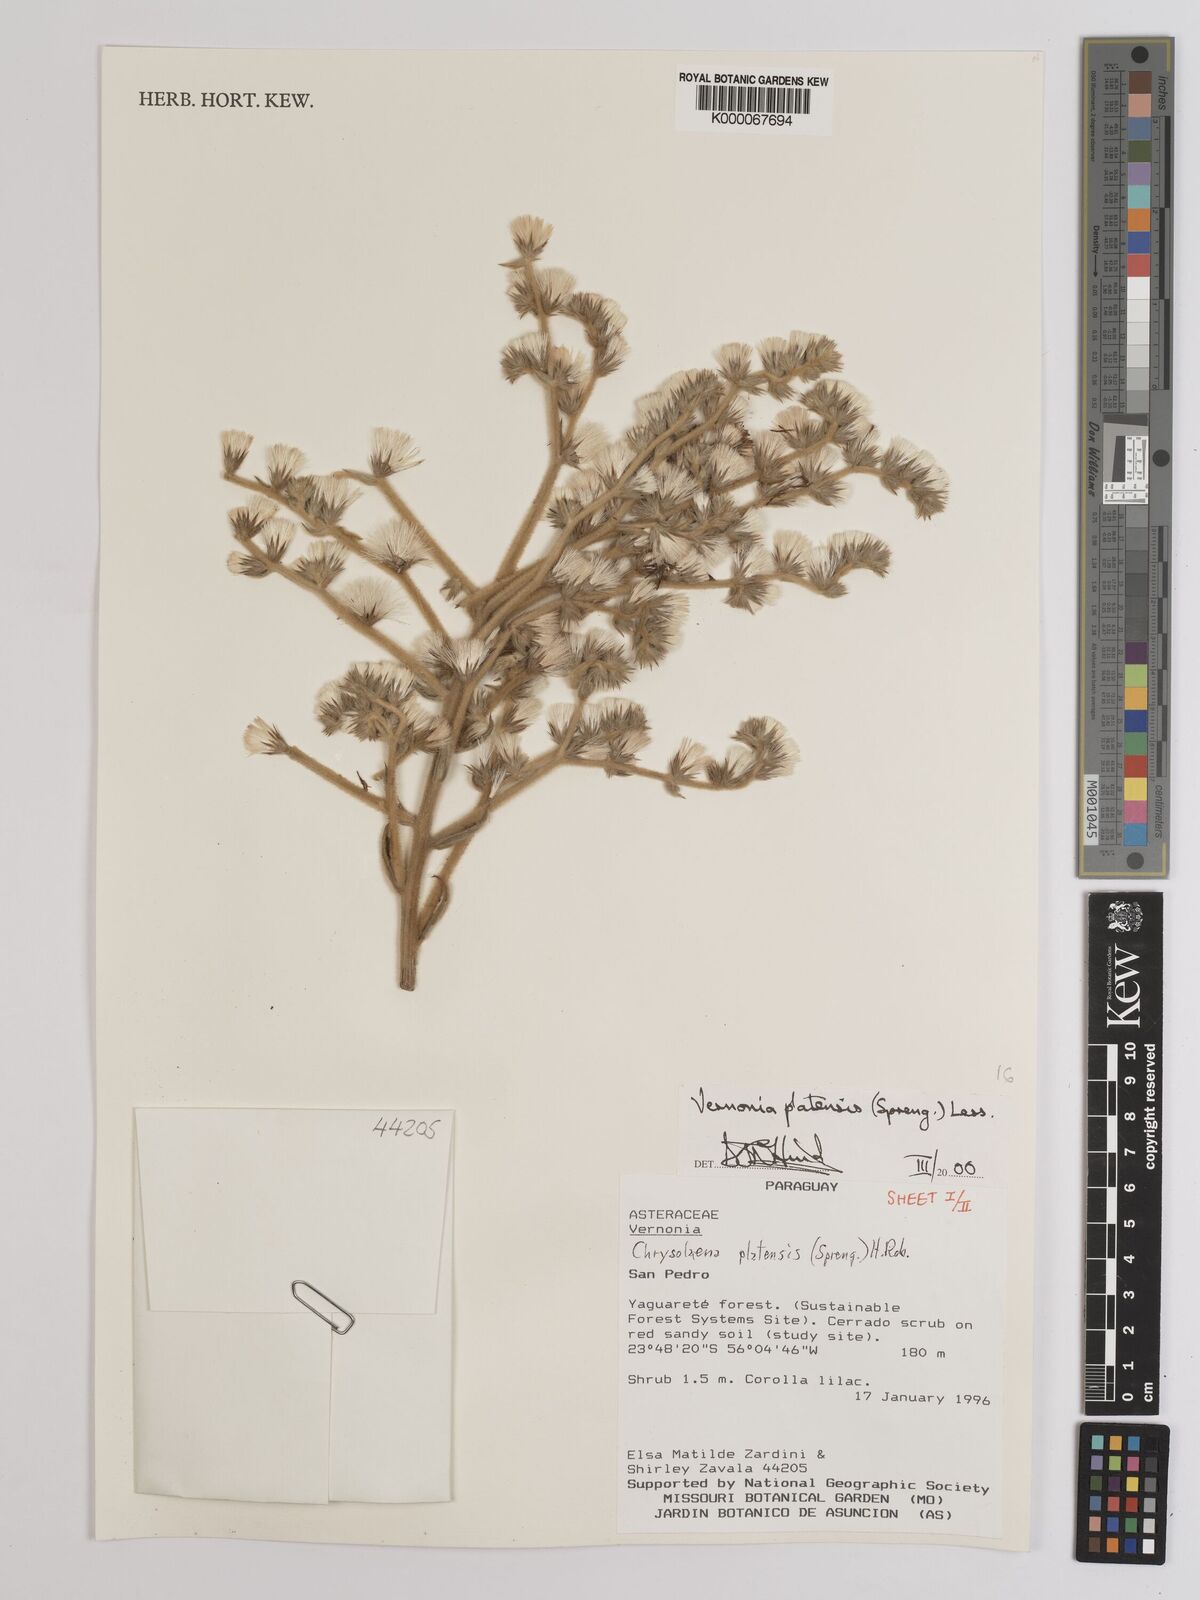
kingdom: Plantae
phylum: Tracheophyta
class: Magnoliopsida
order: Asterales
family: Asteraceae
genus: Chrysolaena
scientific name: Chrysolaena platensis
